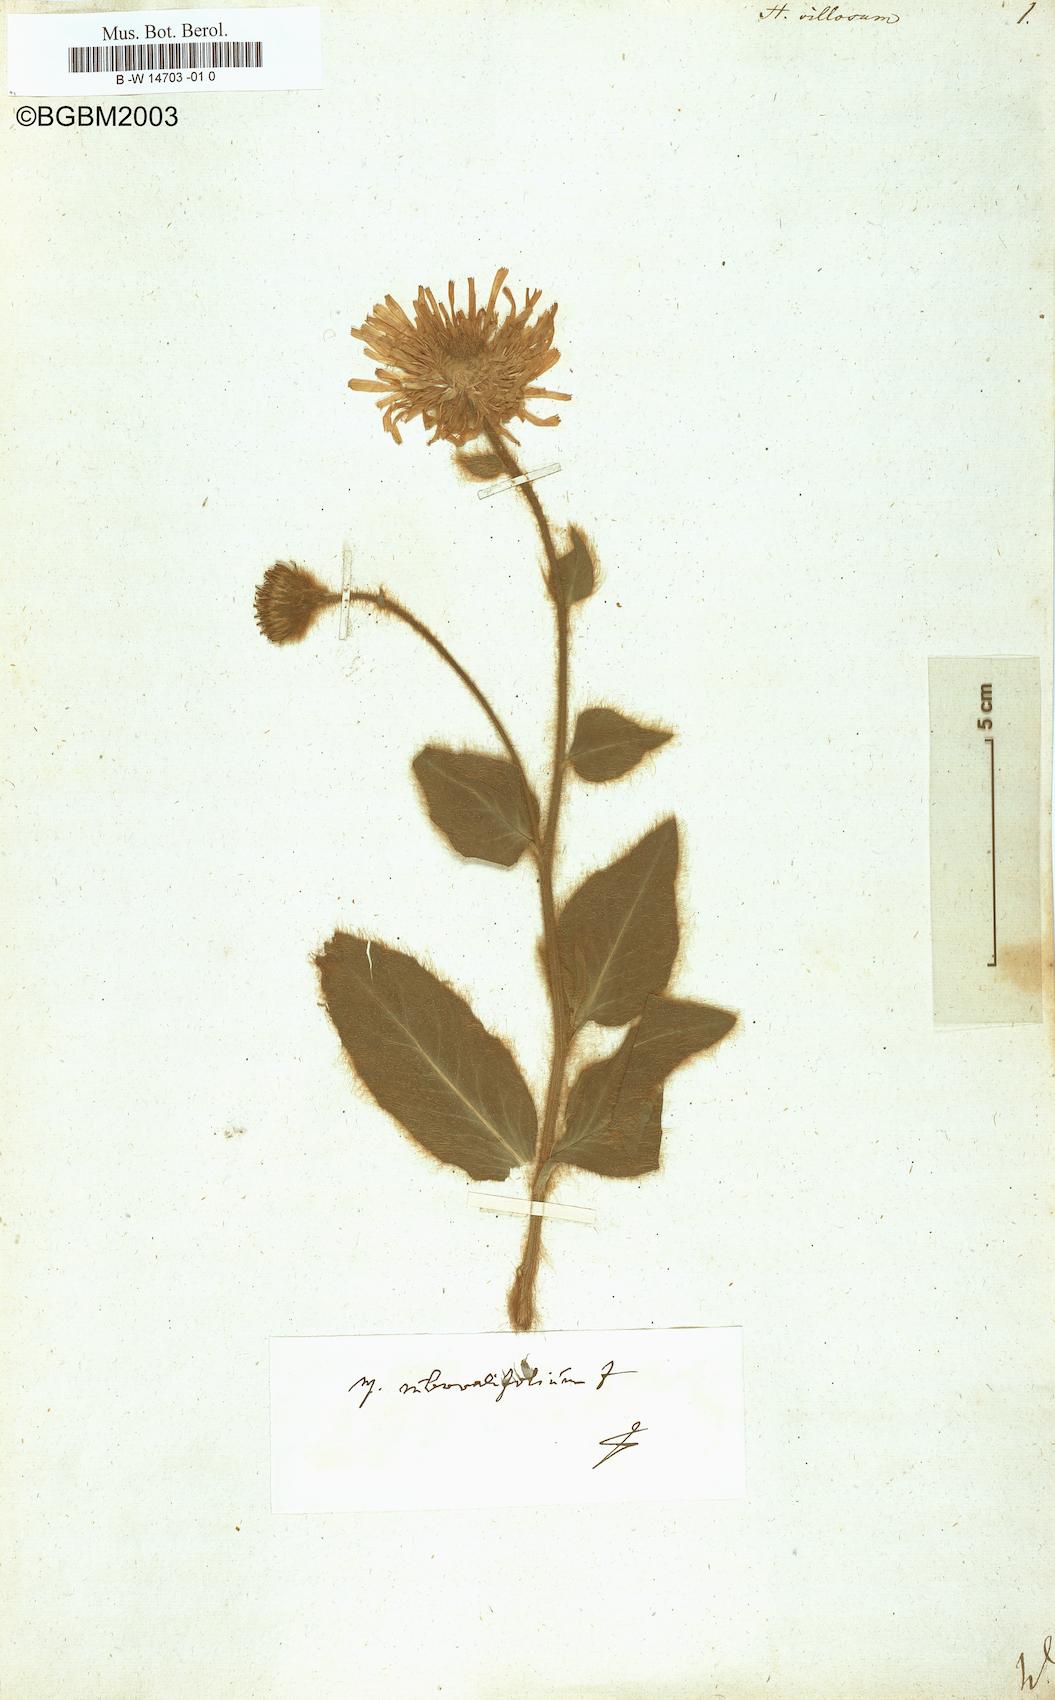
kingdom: Plantae
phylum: Tracheophyta
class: Magnoliopsida
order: Asterales
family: Asteraceae
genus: Hieracium
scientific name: Hieracium villosum
